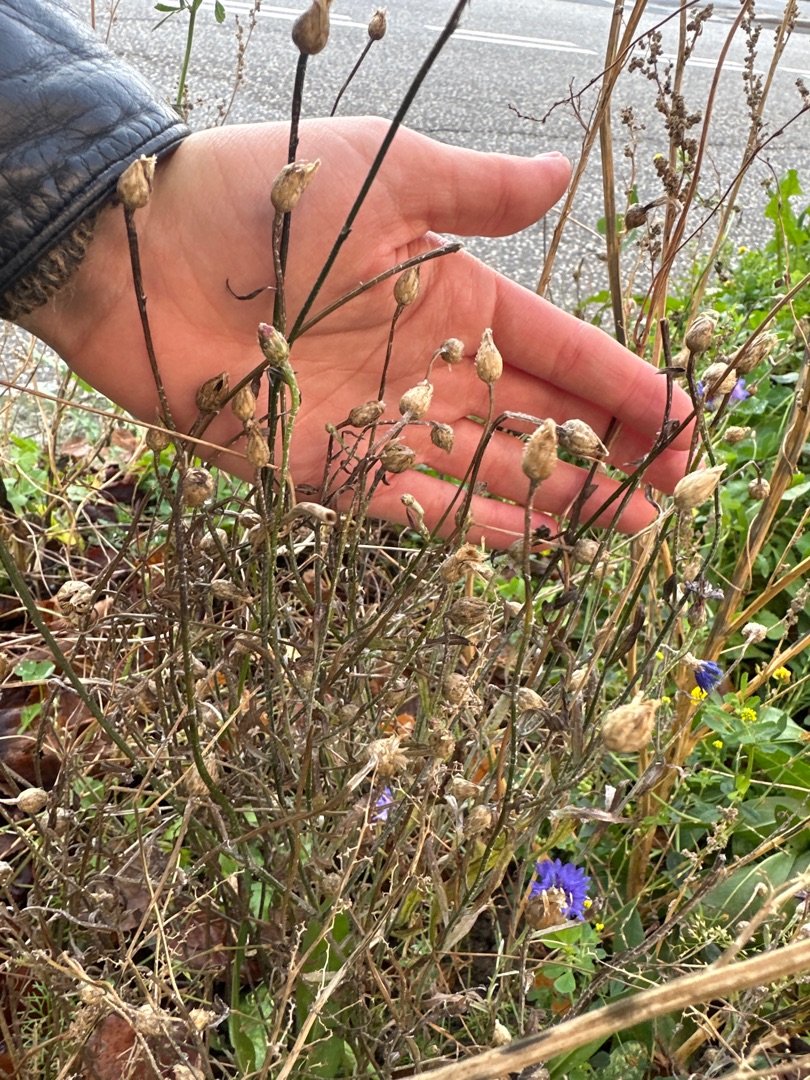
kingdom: Plantae
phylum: Tracheophyta
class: Magnoliopsida
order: Asterales
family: Asteraceae
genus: Centaurea
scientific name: Centaurea cyanus
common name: Kornblomst
